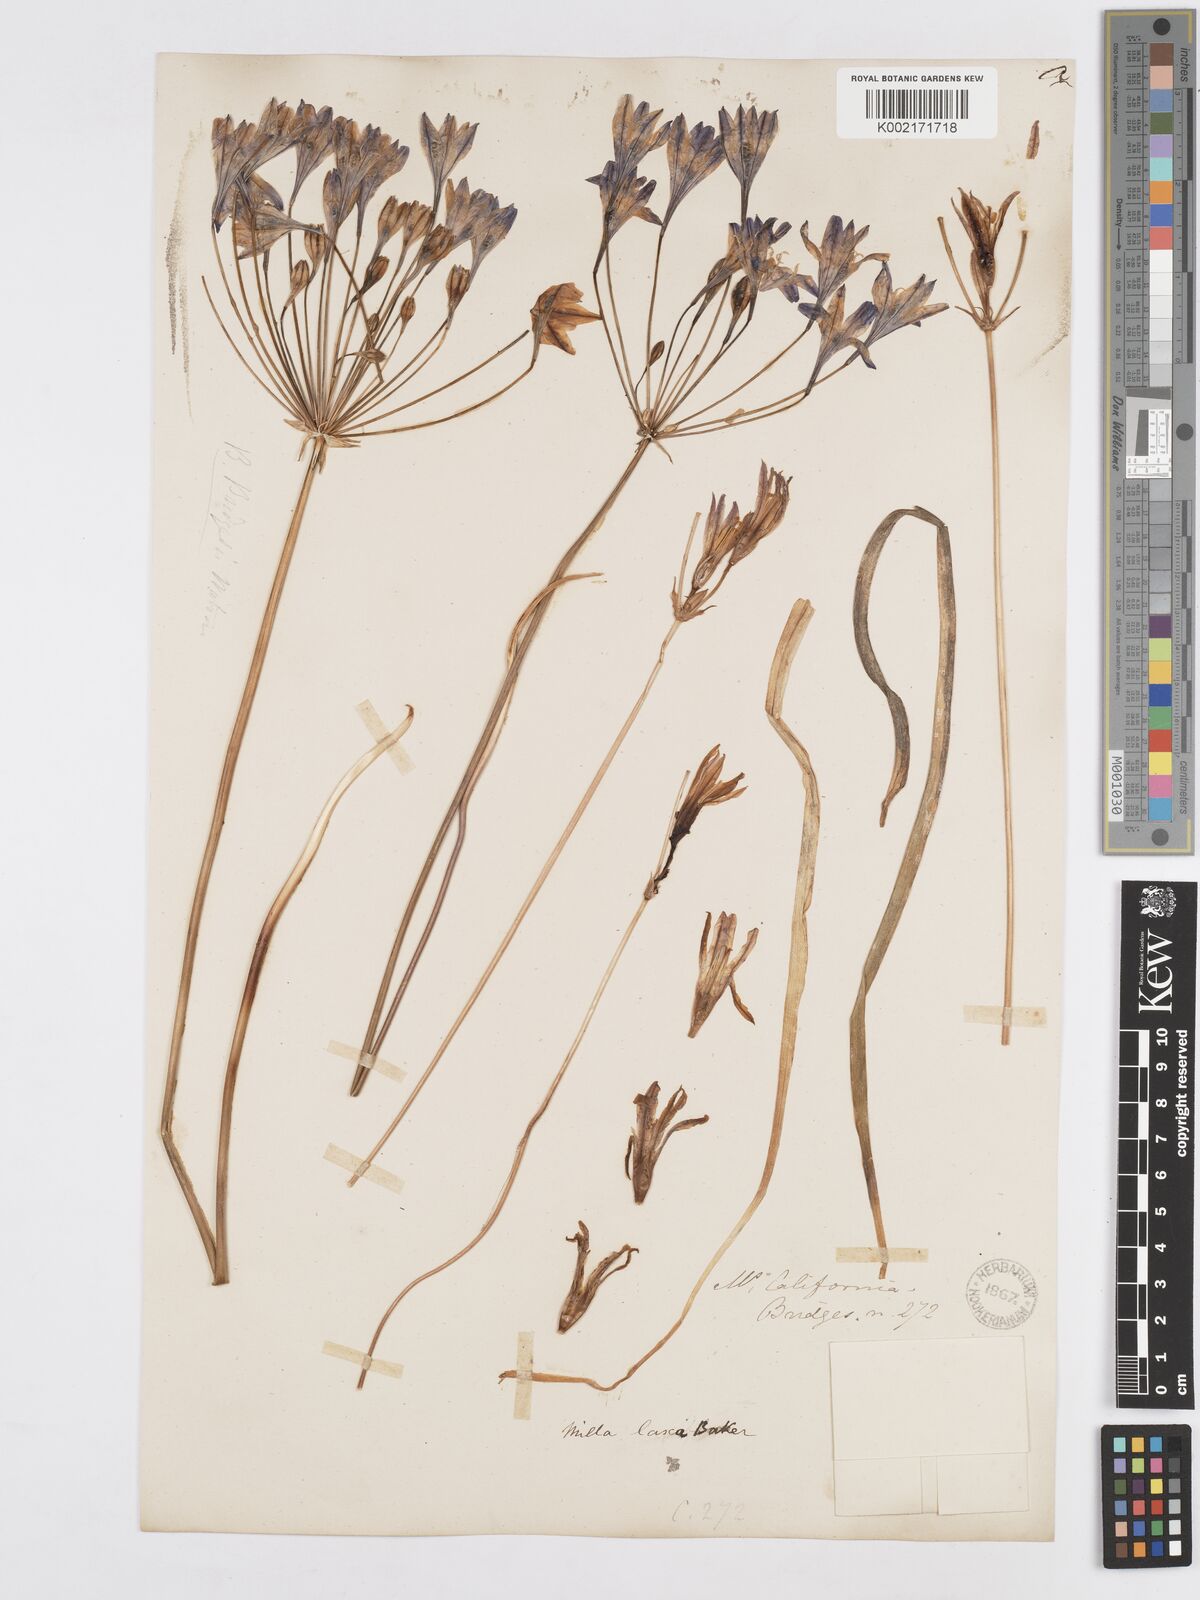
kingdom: Plantae
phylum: Tracheophyta
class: Liliopsida
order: Asparagales
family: Asparagaceae
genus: Triteleia
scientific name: Triteleia laxa
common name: Triplet-lily
